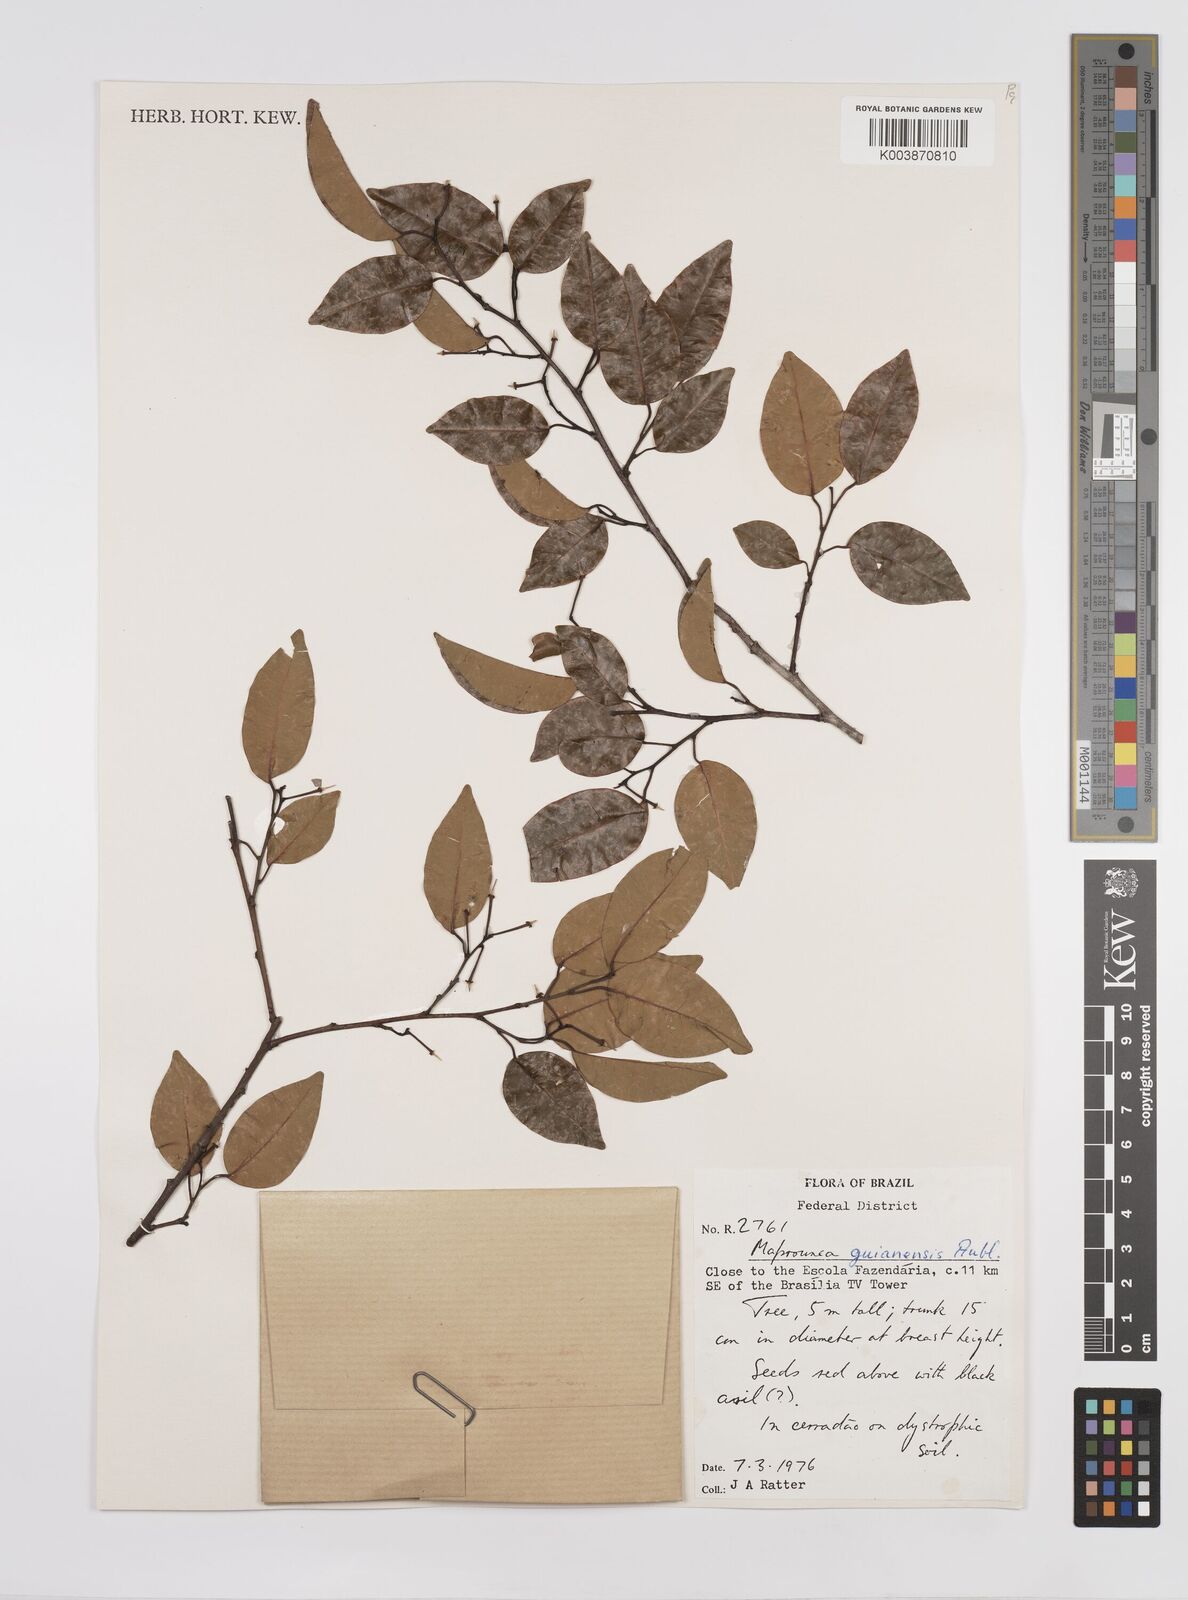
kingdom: Plantae
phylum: Tracheophyta
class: Magnoliopsida
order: Malpighiales
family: Euphorbiaceae
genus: Maprounea
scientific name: Maprounea guianensis
